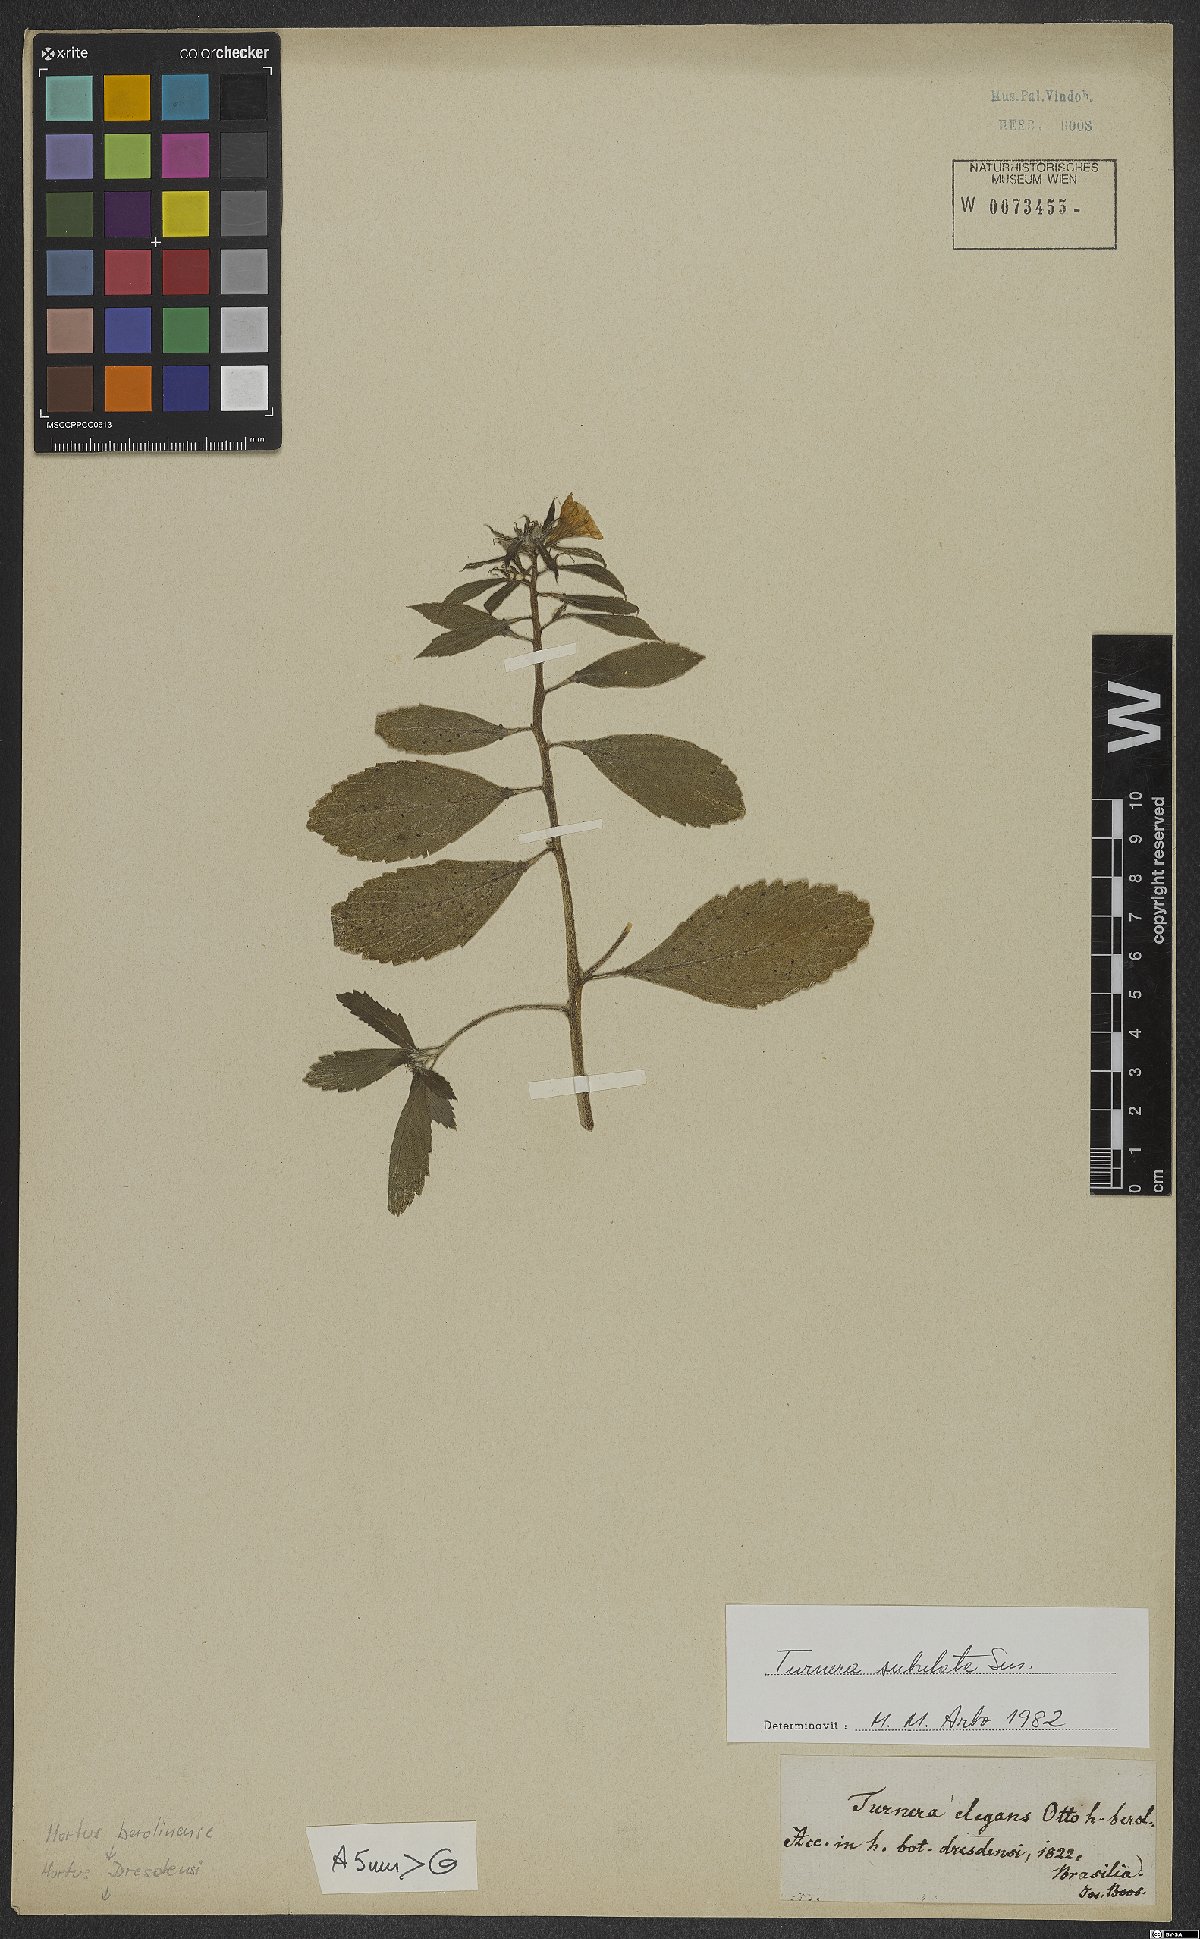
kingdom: Plantae
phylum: Tracheophyta
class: Magnoliopsida
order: Malpighiales
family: Turneraceae
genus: Turnera
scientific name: Turnera subulata
